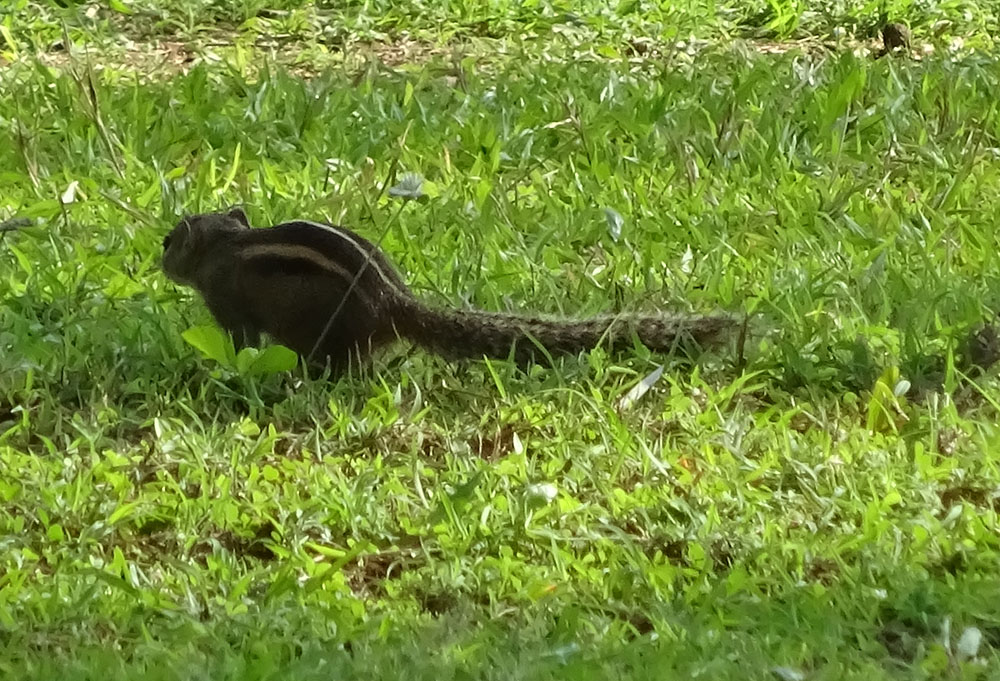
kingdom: Animalia
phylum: Chordata
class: Mammalia
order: Rodentia
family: Sciuridae
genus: Funambulus
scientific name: Funambulus palmarum
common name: Indian palm squirrel
